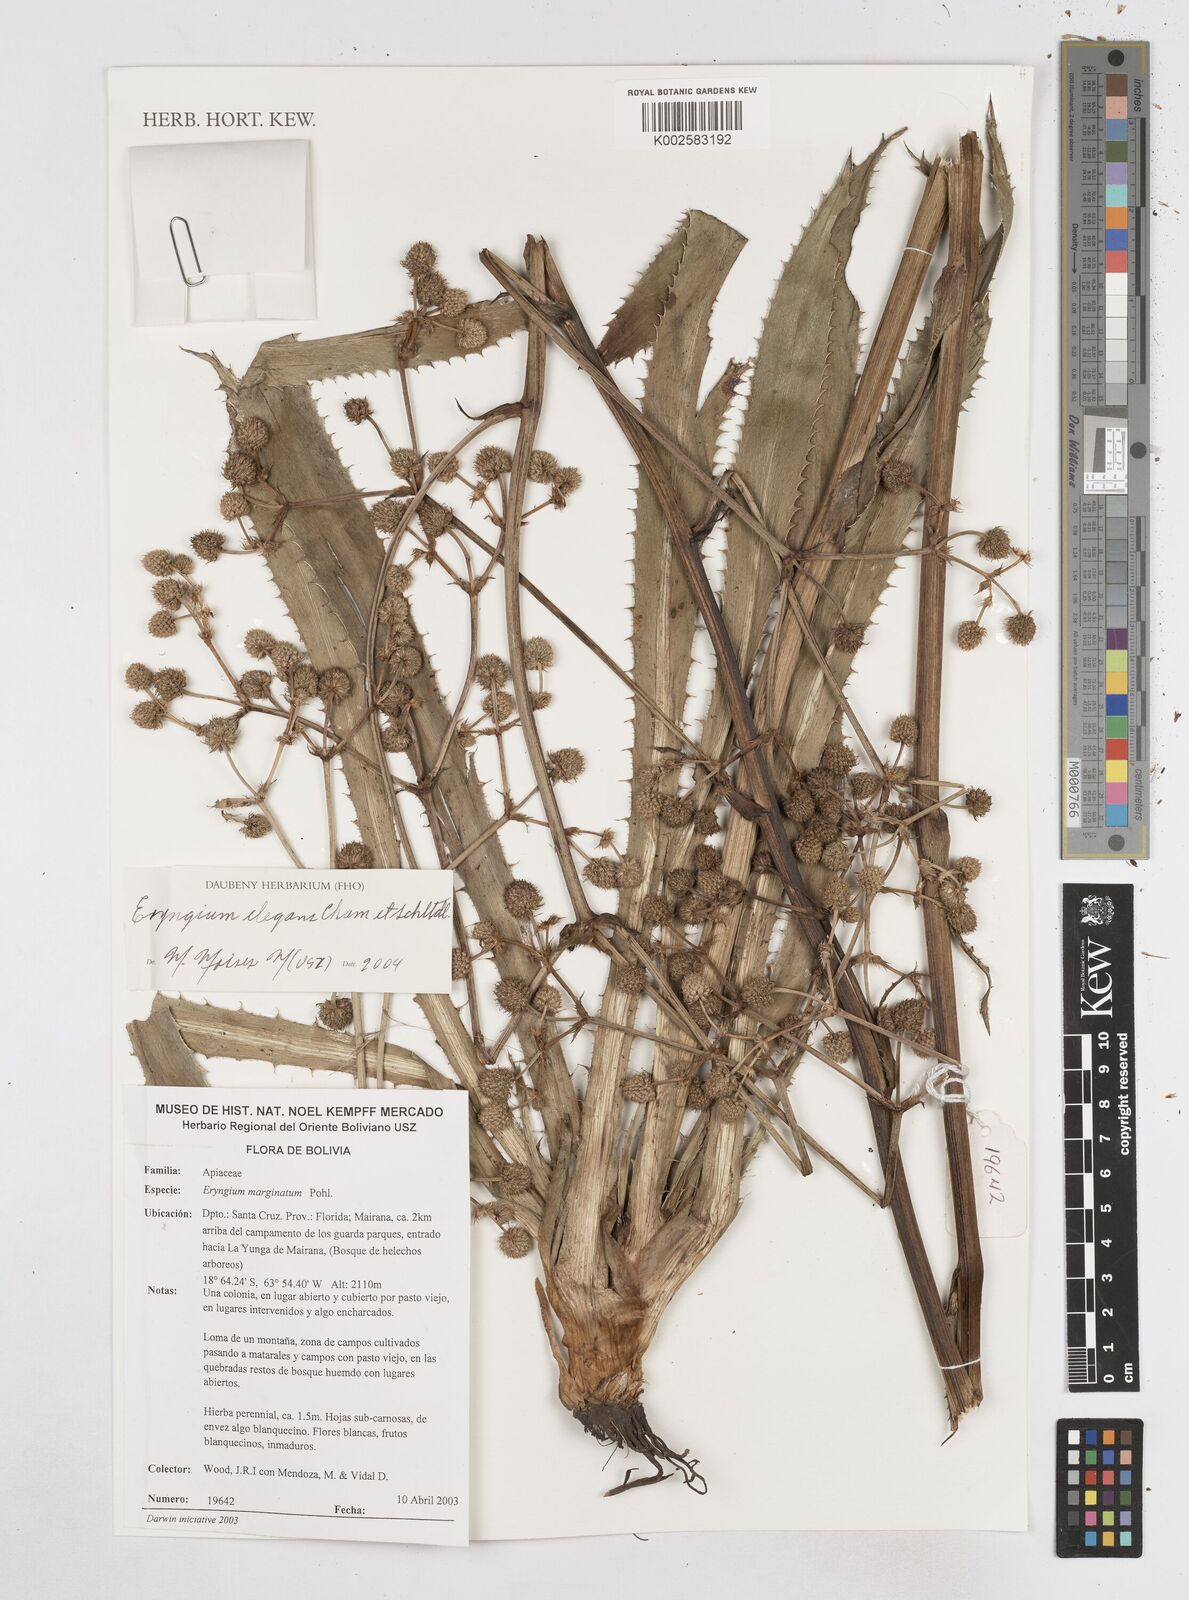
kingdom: Plantae
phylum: Tracheophyta
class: Magnoliopsida
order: Apiales
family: Apiaceae
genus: Eryngium
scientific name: Eryngium elegans
